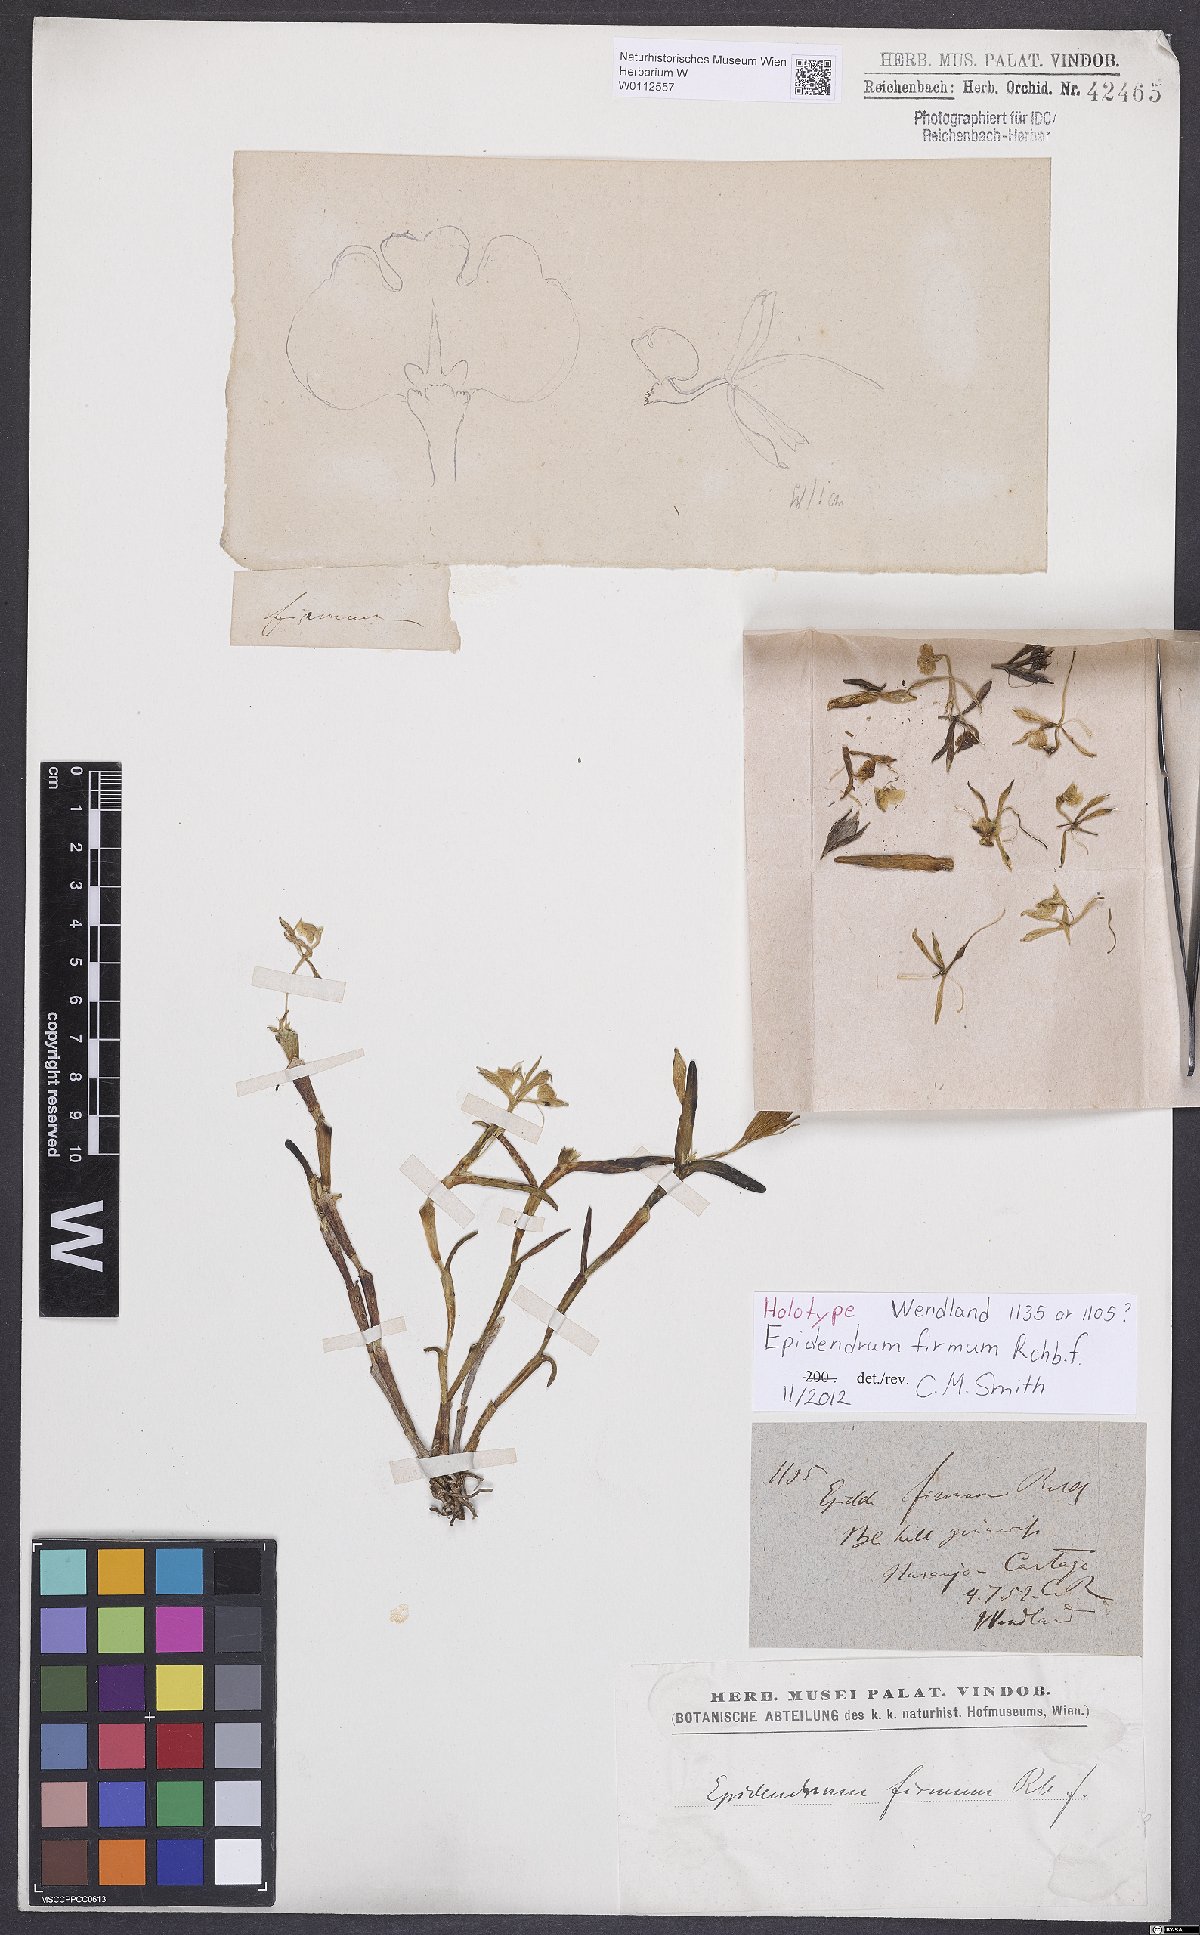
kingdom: Plantae
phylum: Tracheophyta
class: Liliopsida
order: Asparagales
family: Orchidaceae
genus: Epidendrum
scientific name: Epidendrum firmum
